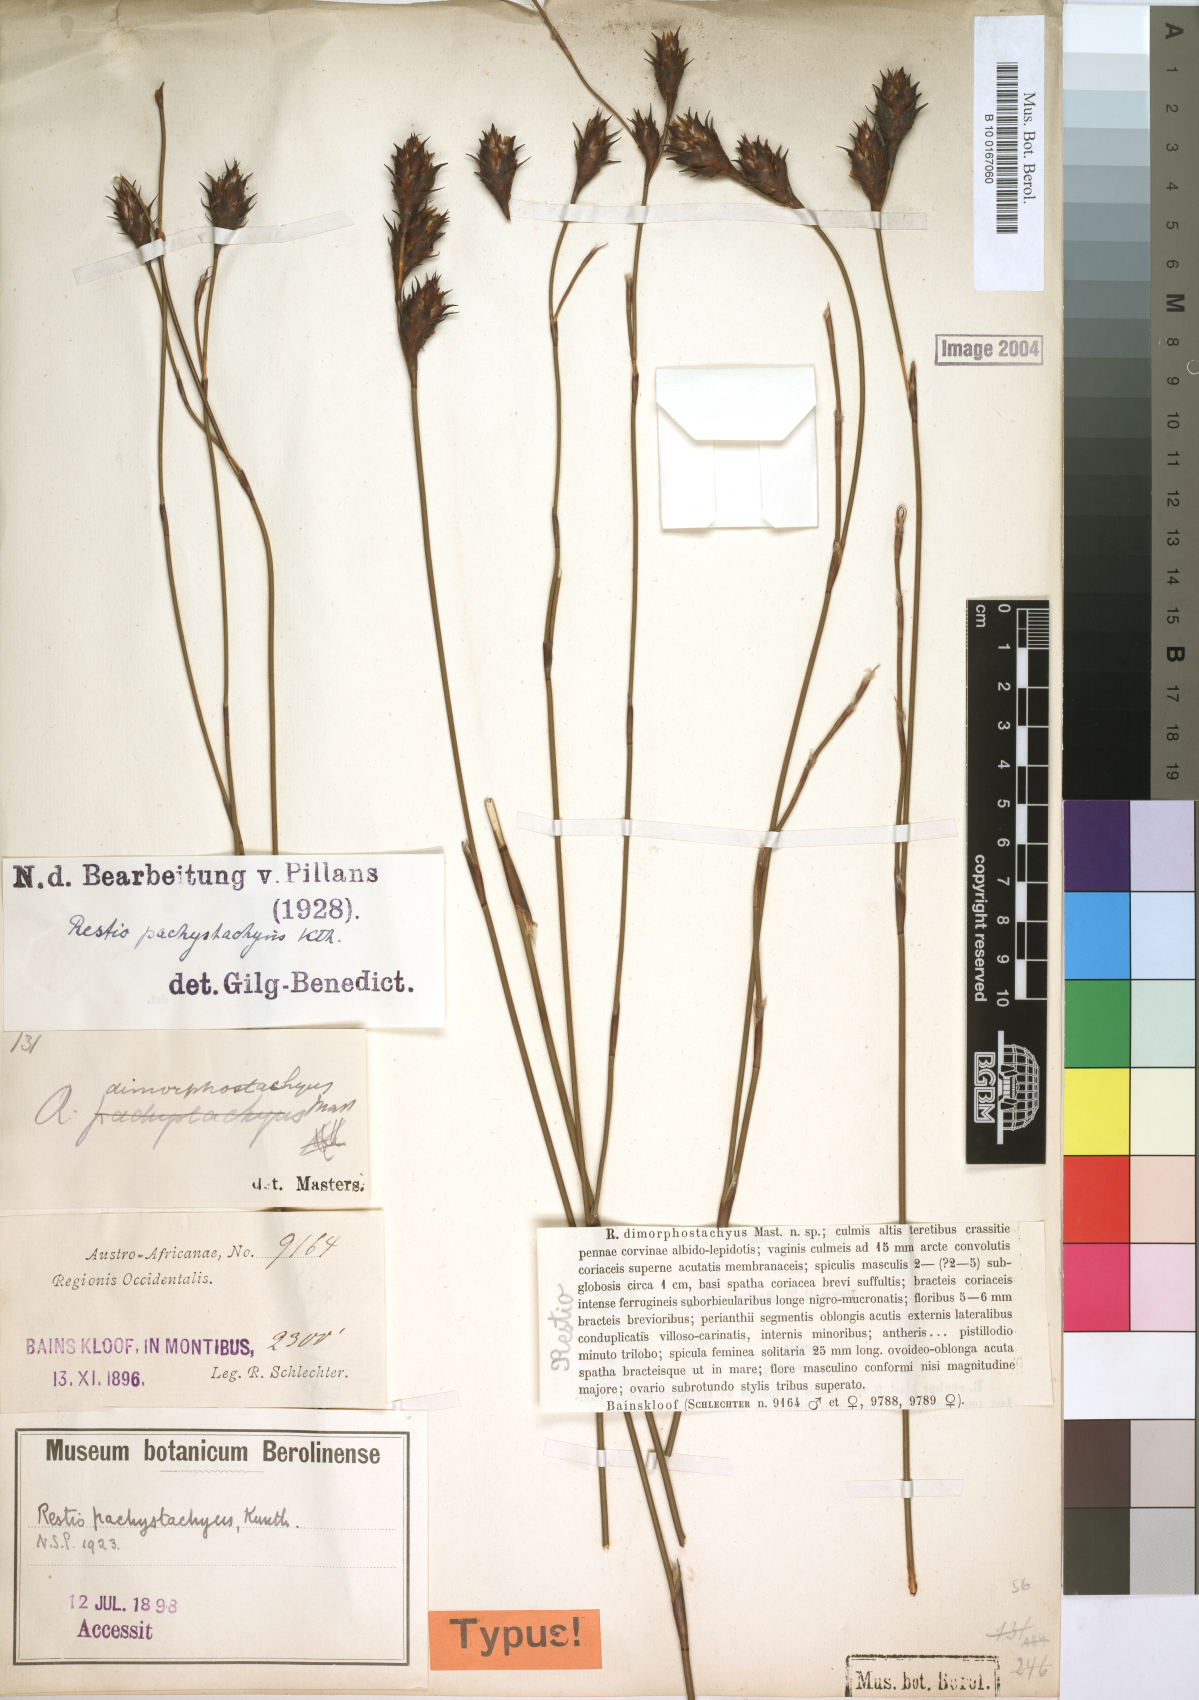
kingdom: Plantae
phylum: Tracheophyta
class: Liliopsida
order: Poales
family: Restionaceae
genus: Restio
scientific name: Restio pachystachyus
